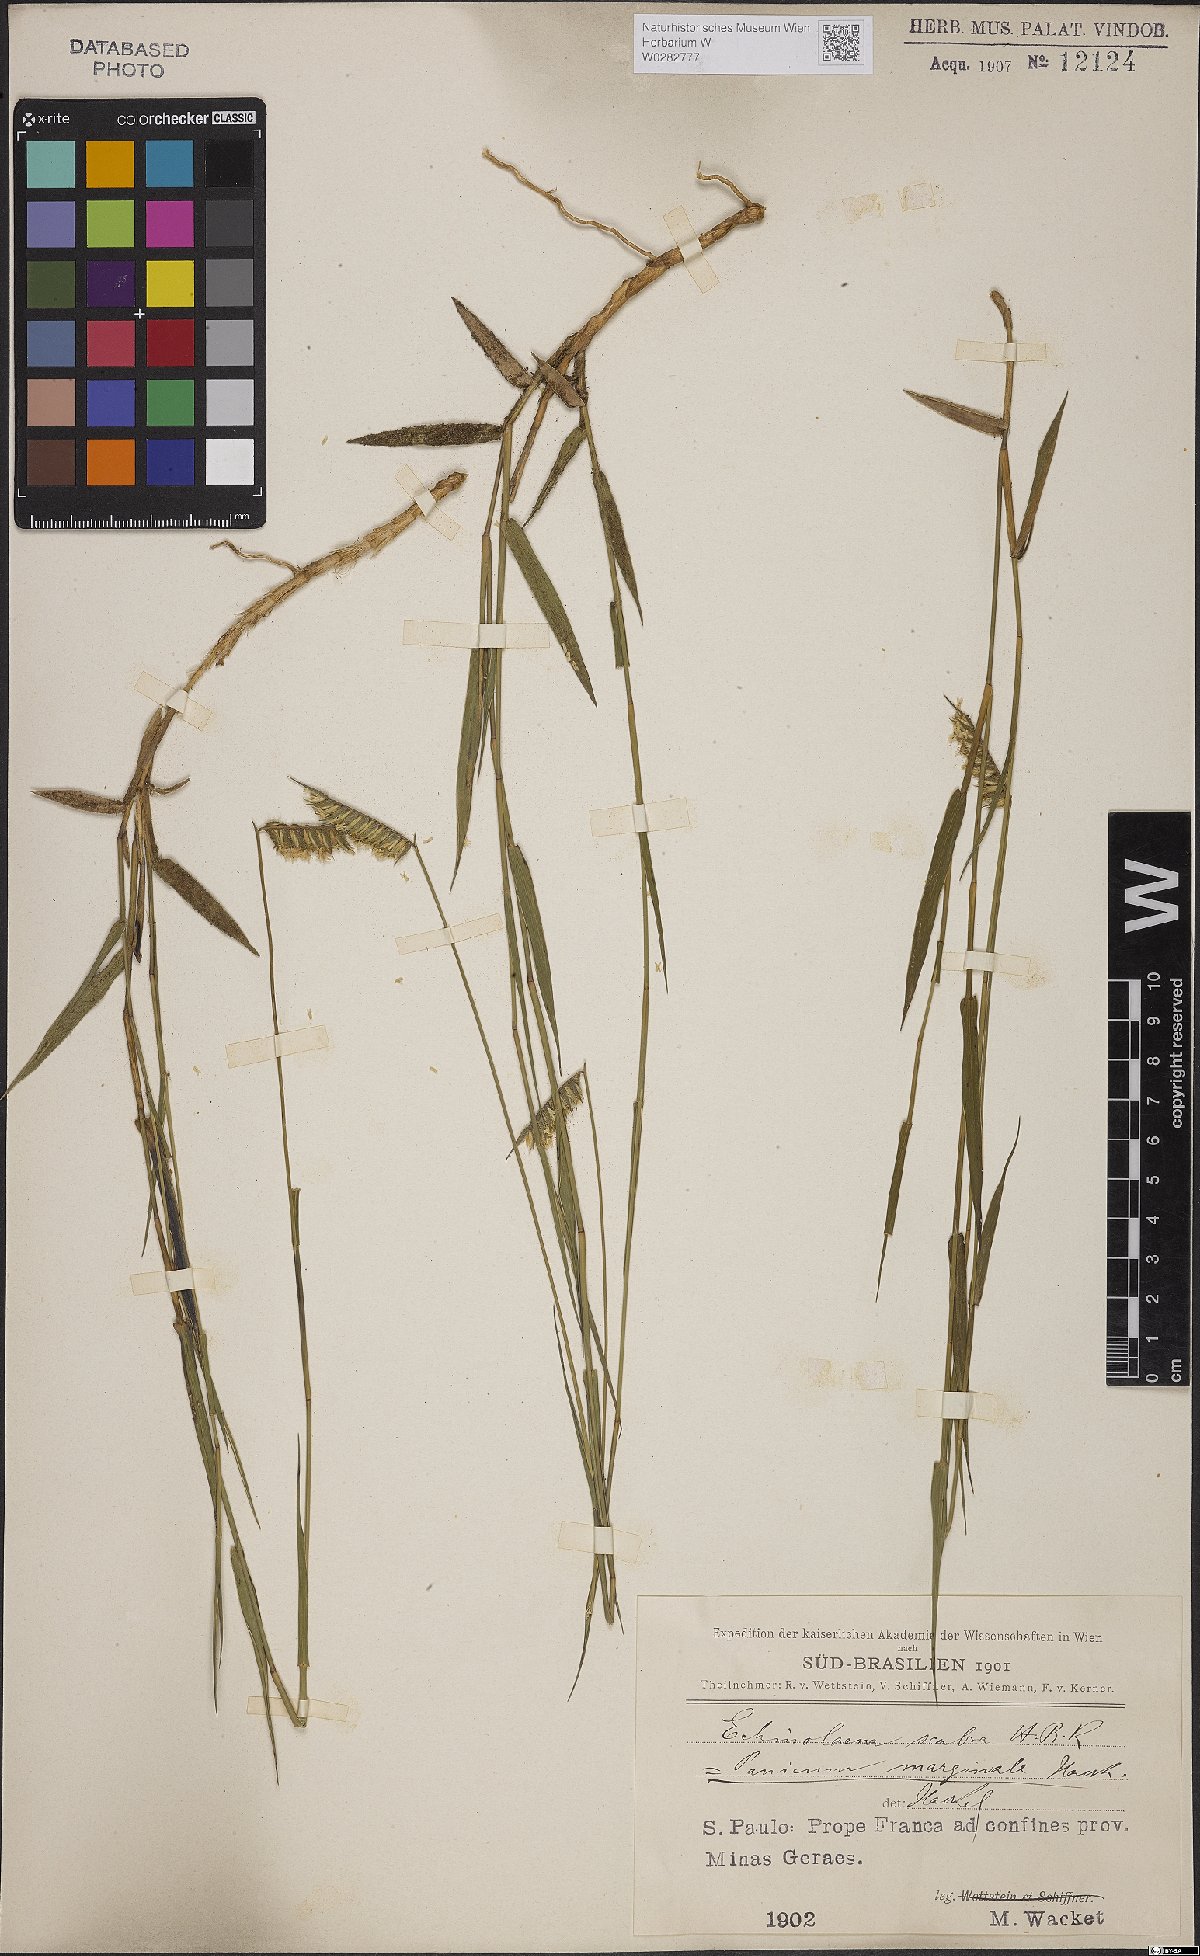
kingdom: Plantae
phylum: Tracheophyta
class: Liliopsida
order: Poales
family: Poaceae
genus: Echinolaena
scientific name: Echinolaena inflexa
